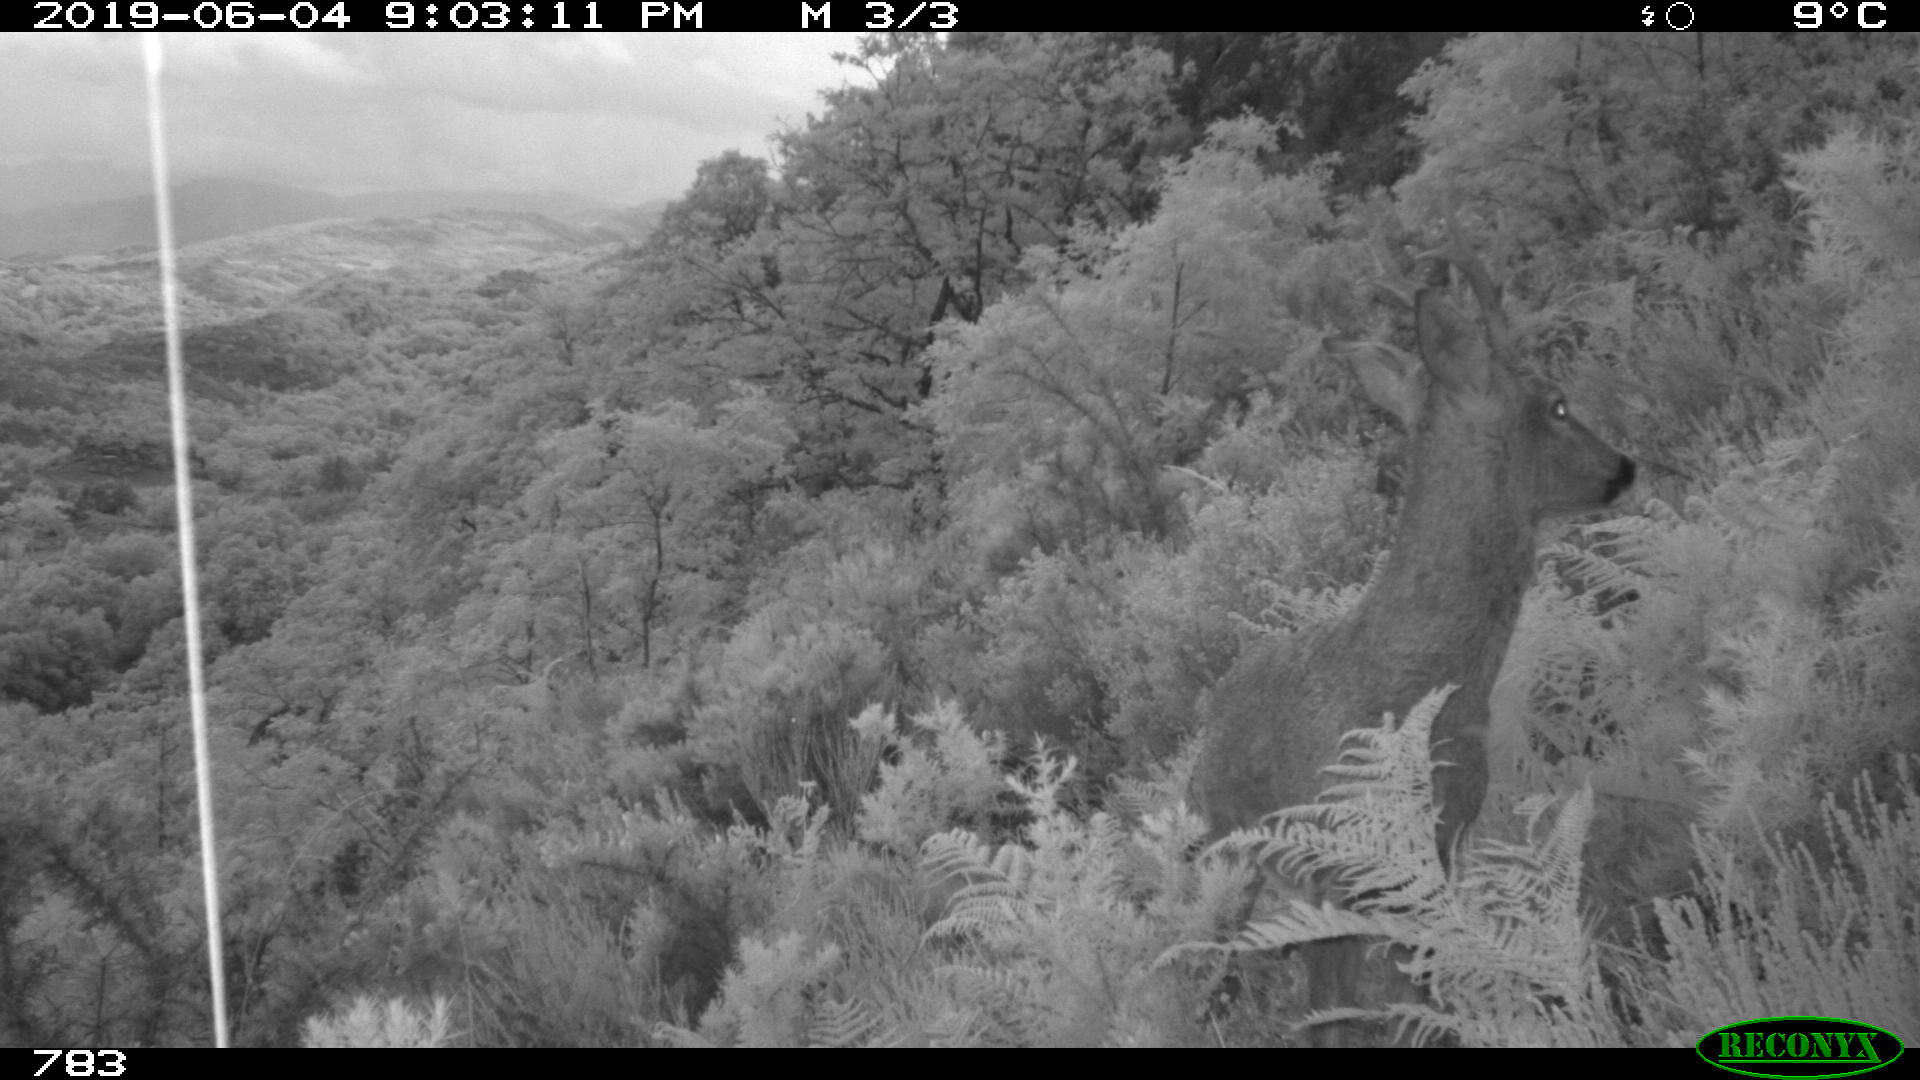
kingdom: Animalia
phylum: Chordata
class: Mammalia
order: Artiodactyla
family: Cervidae
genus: Capreolus
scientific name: Capreolus capreolus
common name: Western roe deer
